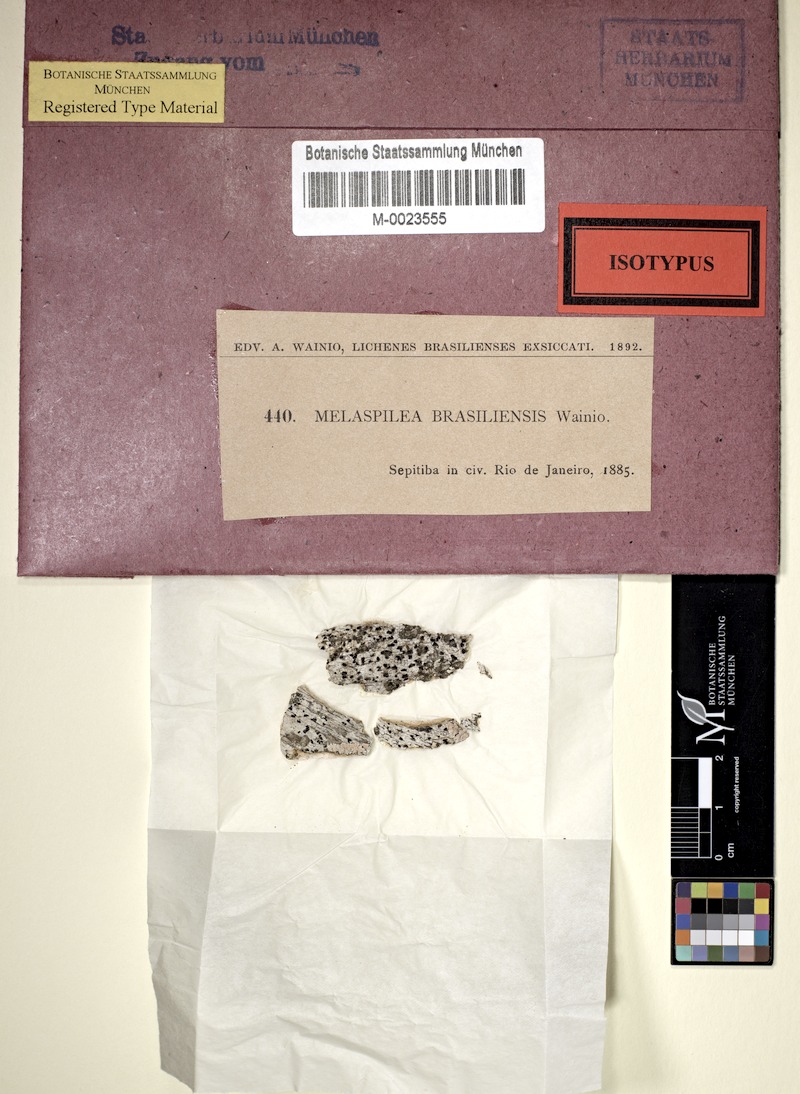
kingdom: Fungi
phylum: Ascomycota
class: Dothideomycetes
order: Eremithallales
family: Melaspileaceae
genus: Melaspilea
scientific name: Melaspilea
